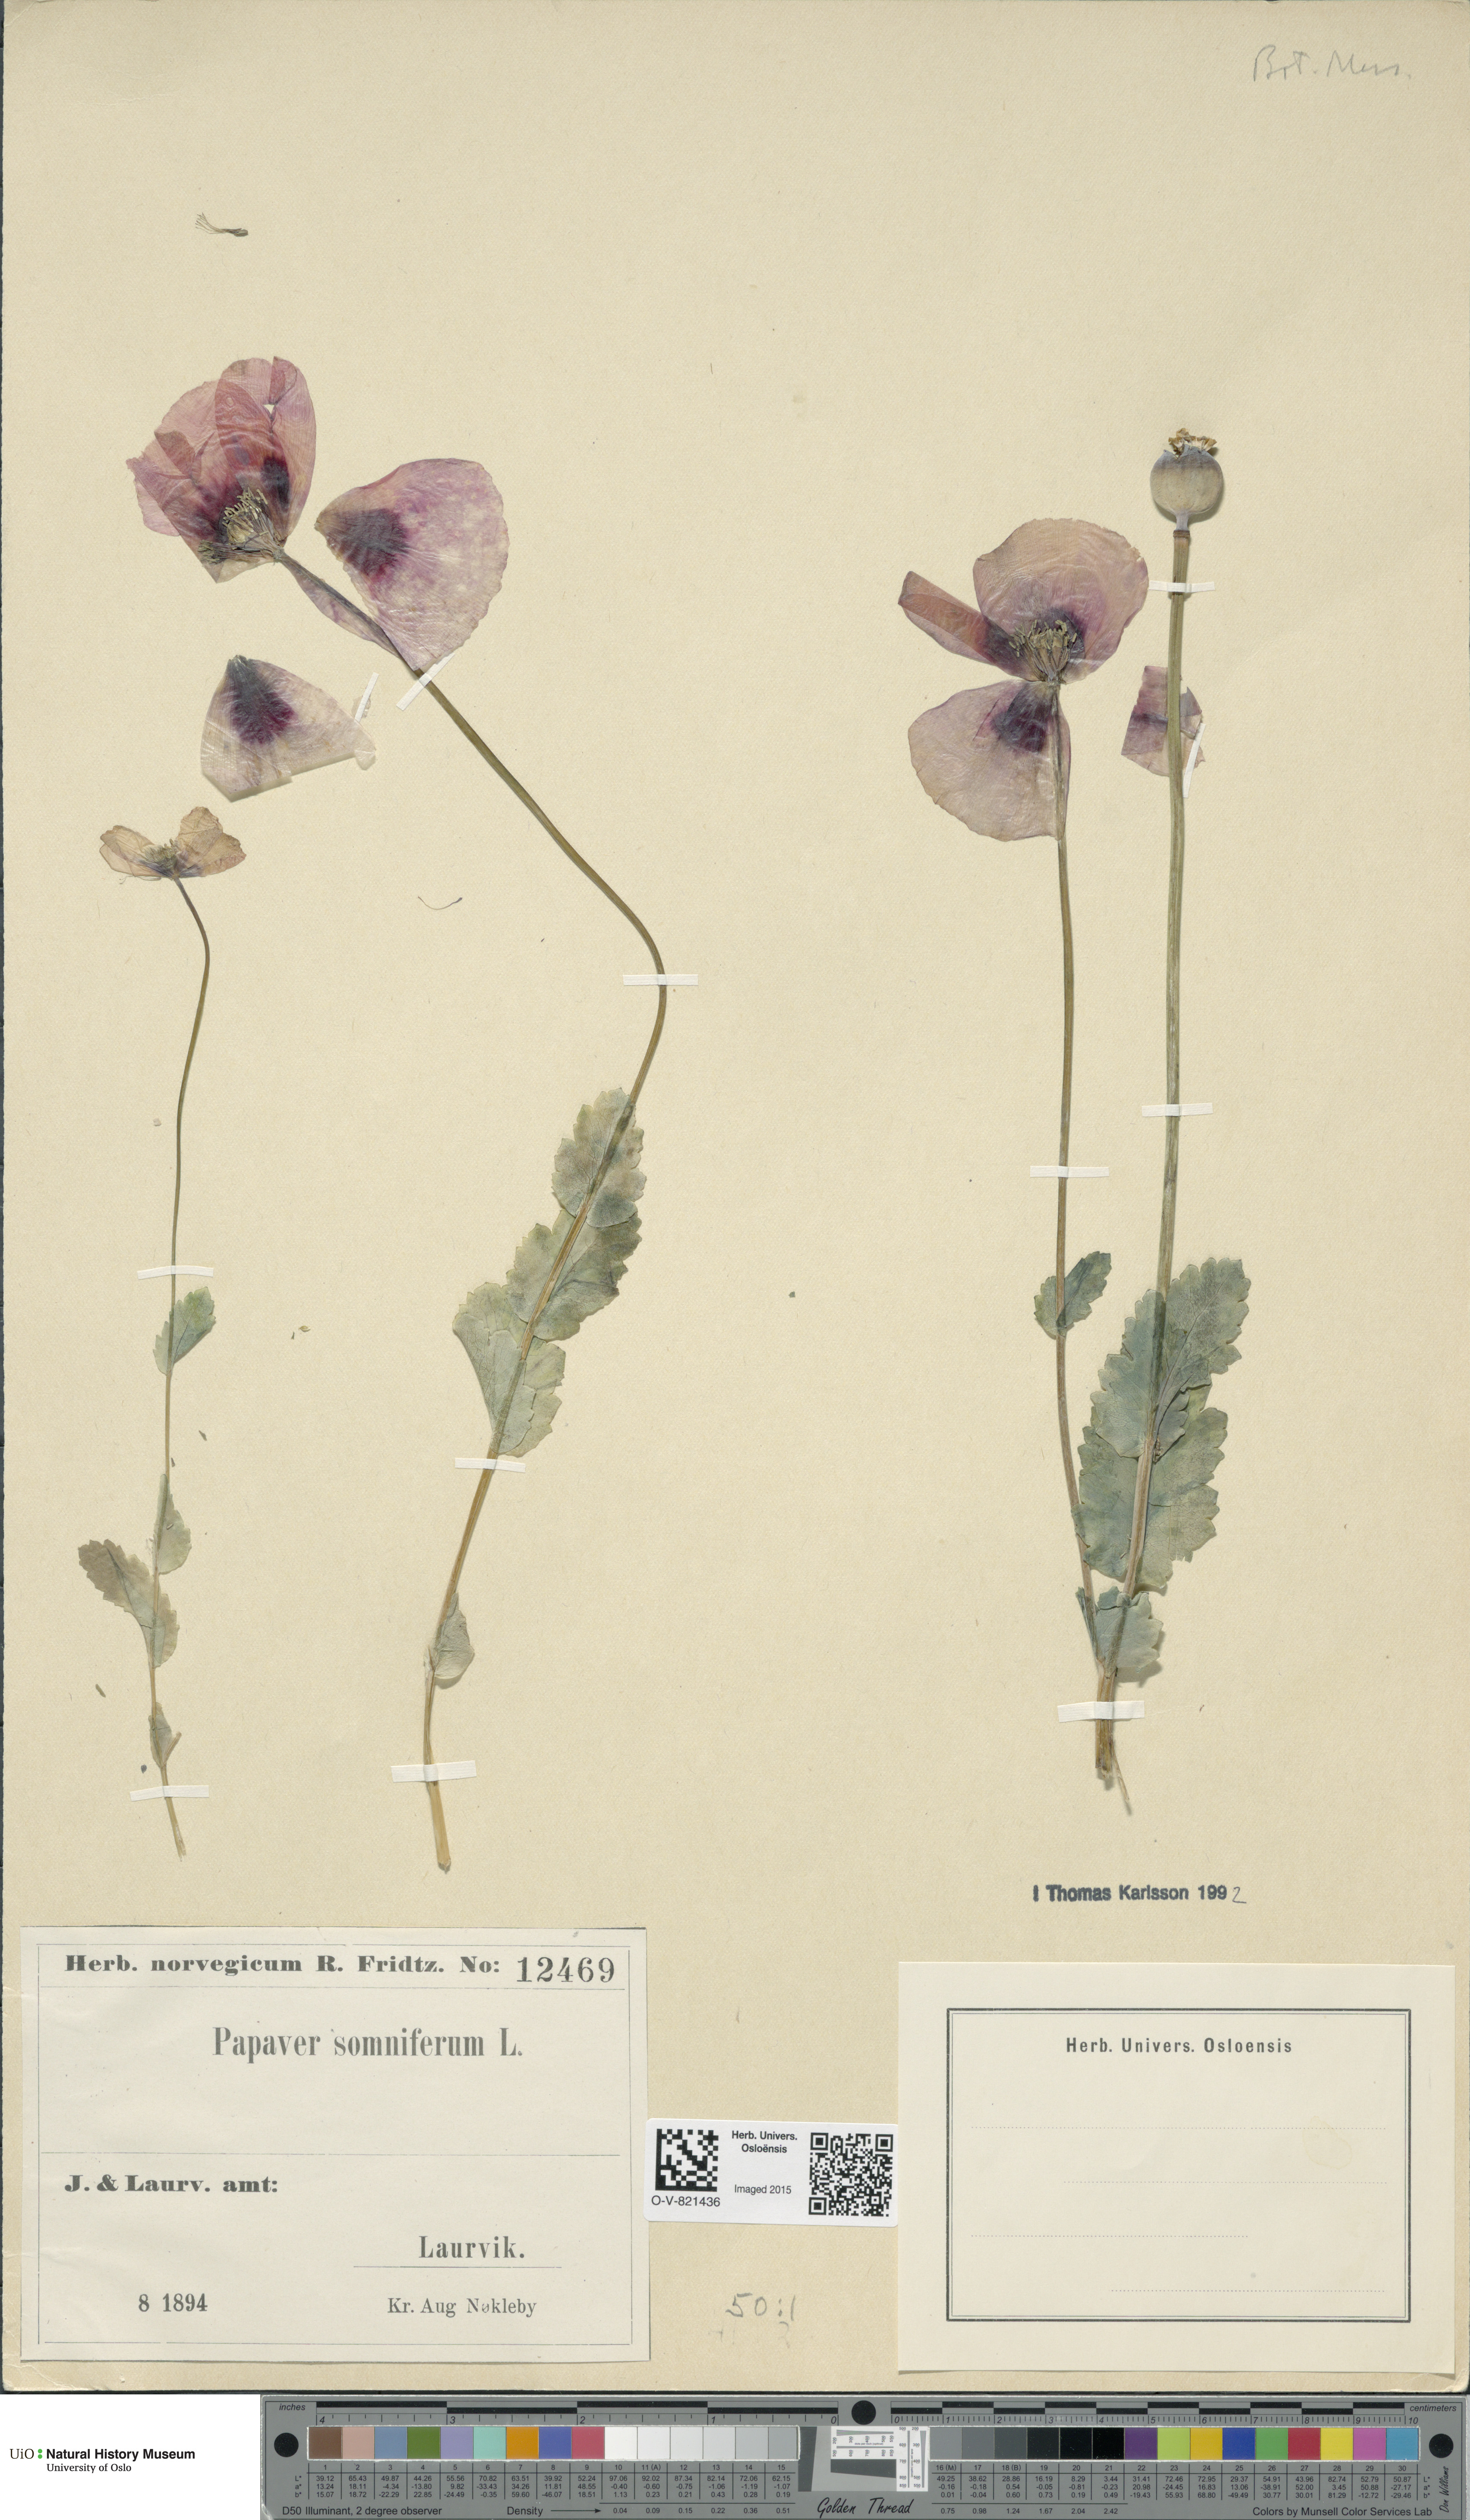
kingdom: Plantae
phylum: Tracheophyta
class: Magnoliopsida
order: Ranunculales
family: Papaveraceae
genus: Papaver
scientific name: Papaver somniferum
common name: Opium poppy
